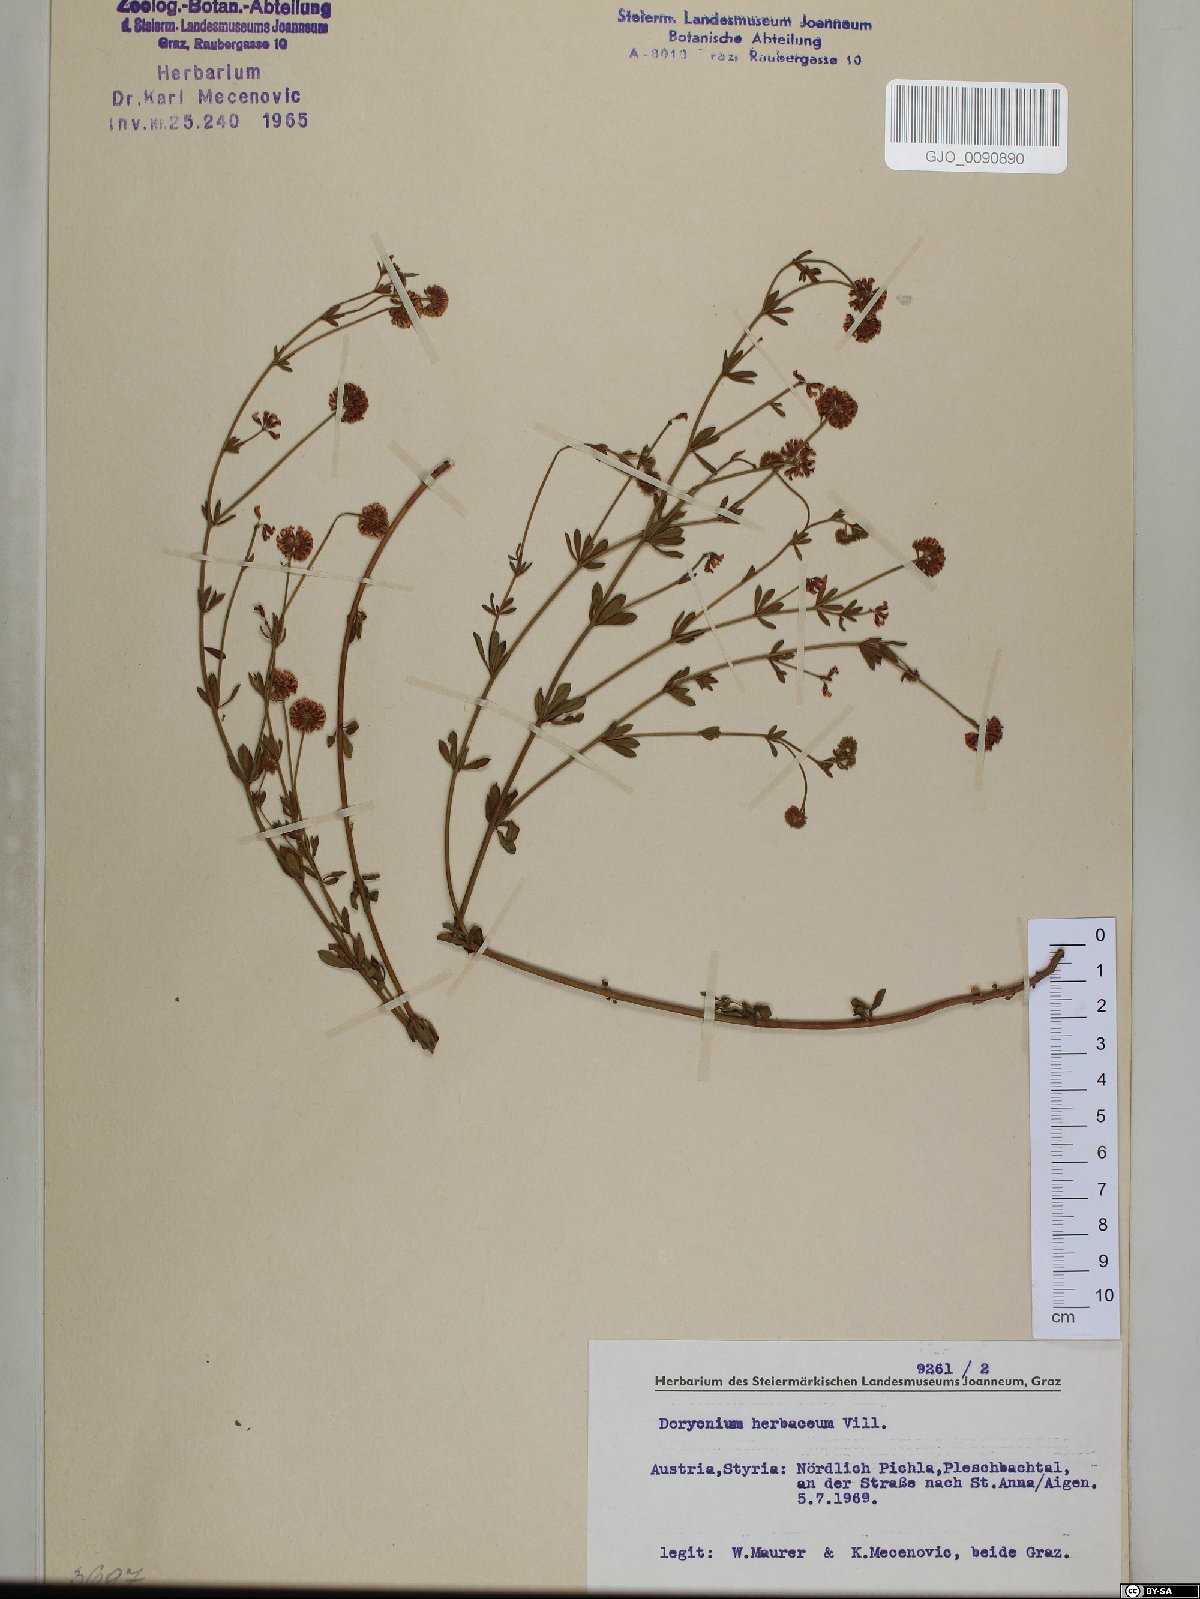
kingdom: Plantae
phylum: Tracheophyta
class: Magnoliopsida
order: Fabales
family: Fabaceae
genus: Lotus
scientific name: Lotus herbaceus
